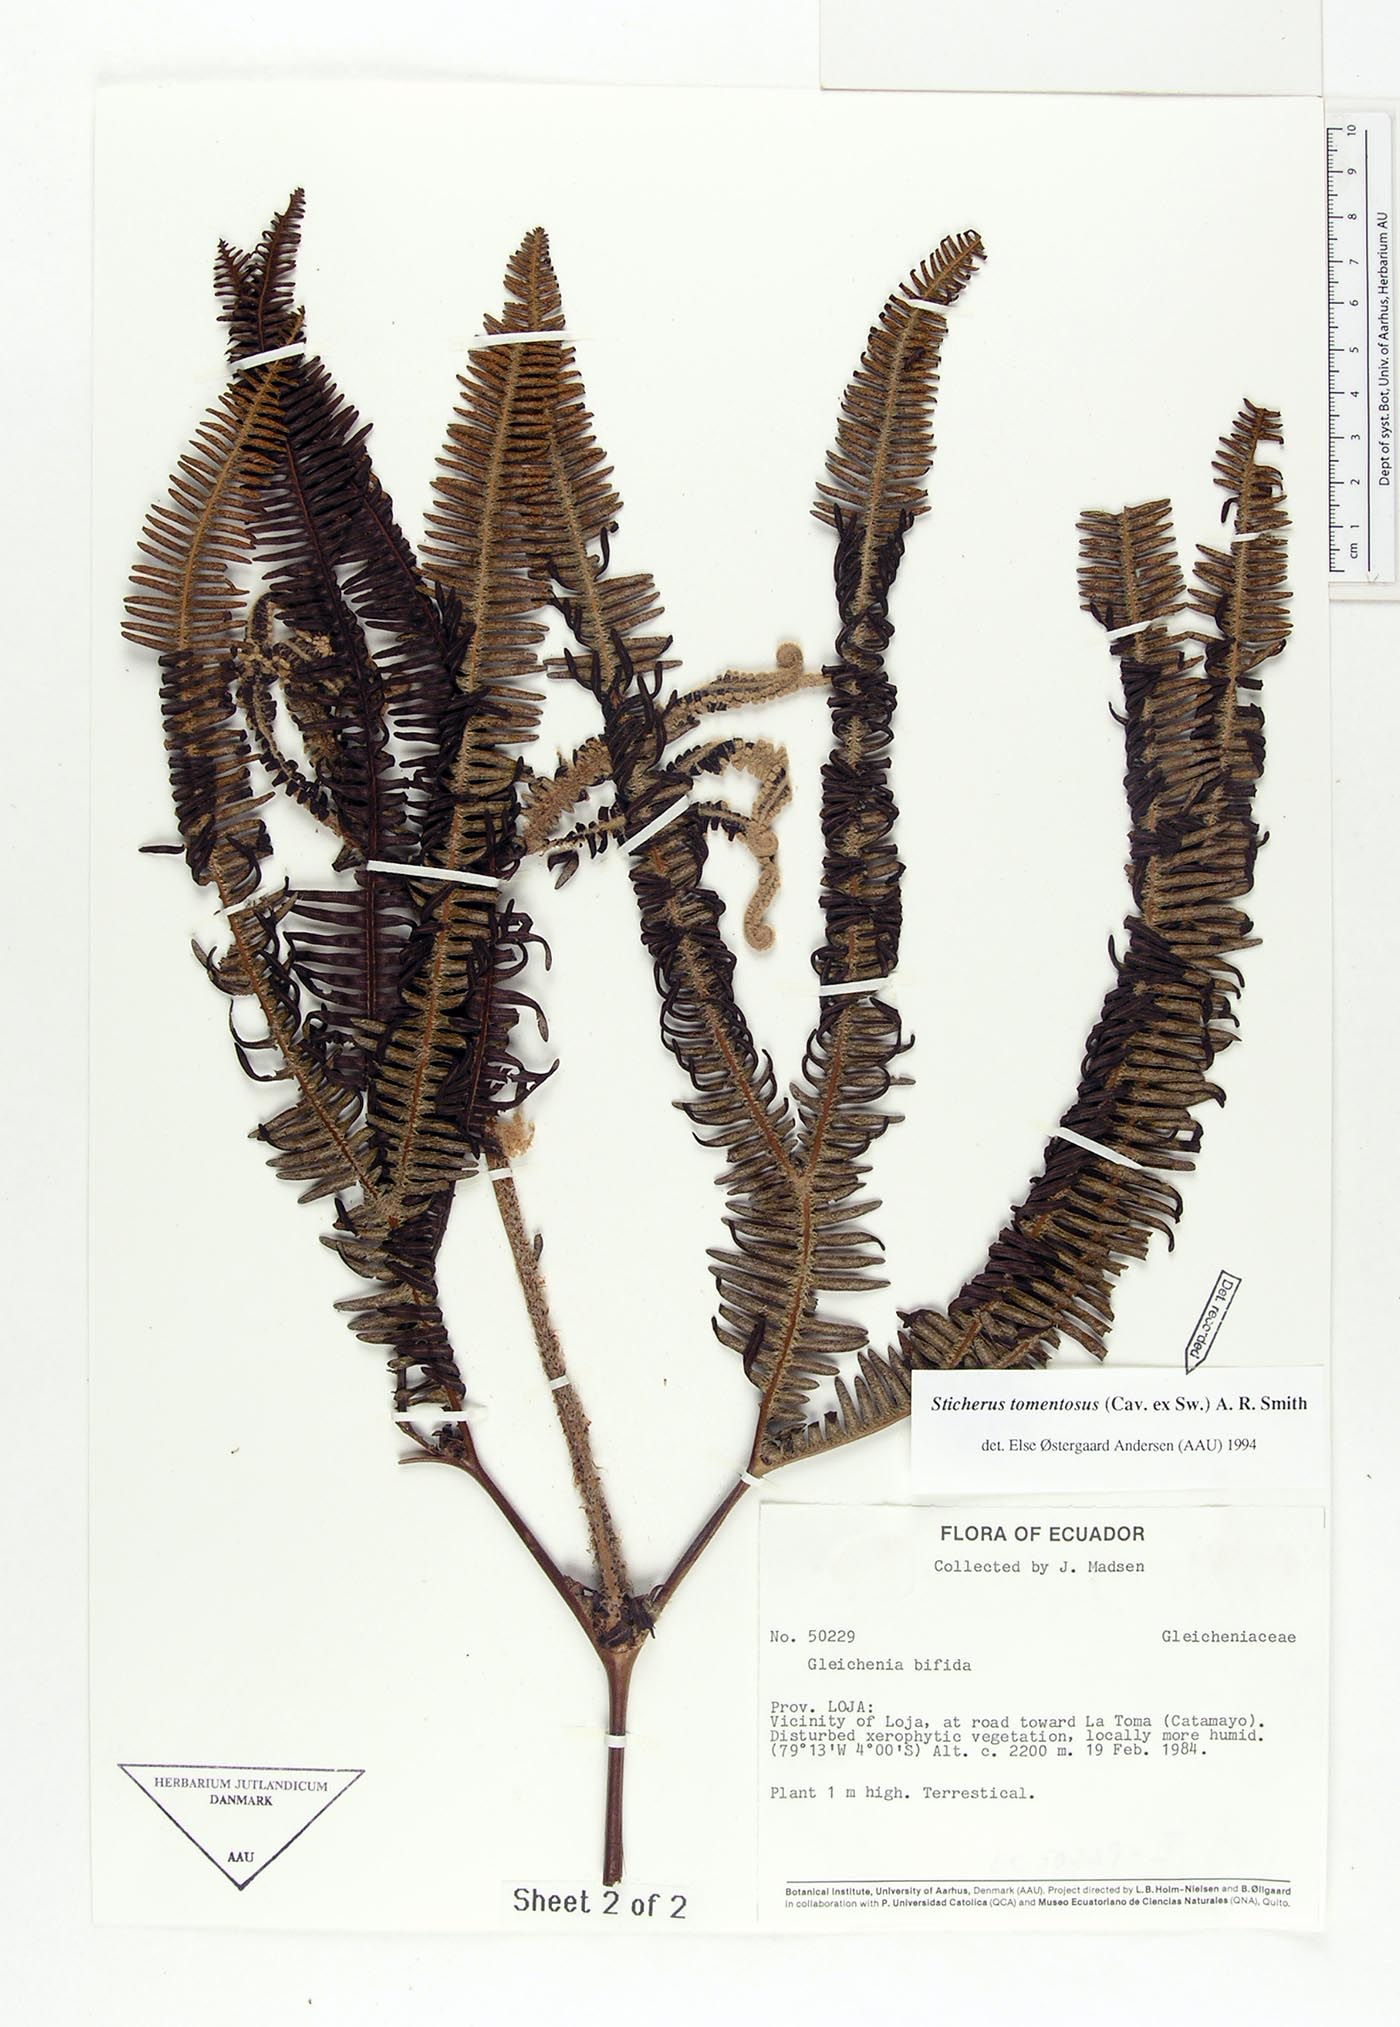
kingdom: Plantae
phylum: Tracheophyta
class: Polypodiopsida
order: Gleicheniales
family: Gleicheniaceae
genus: Sticherus
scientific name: Sticherus tomentosus
